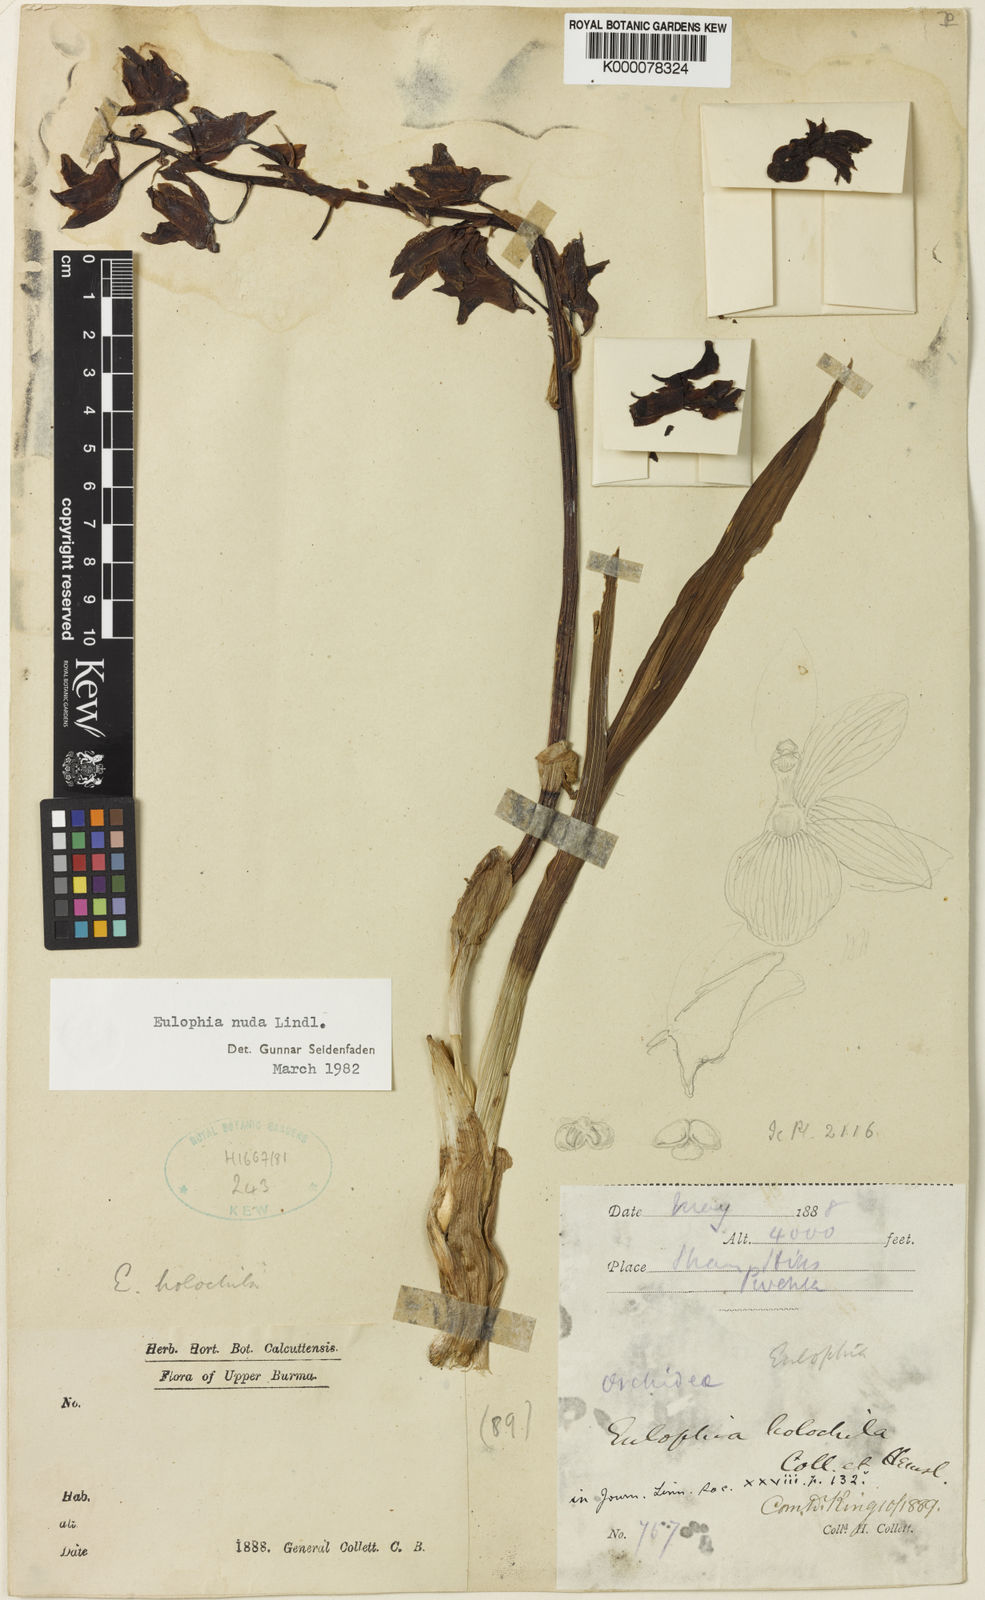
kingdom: Plantae
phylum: Tracheophyta
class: Liliopsida
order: Asparagales
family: Orchidaceae
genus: Eulophia
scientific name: Eulophia nuda
